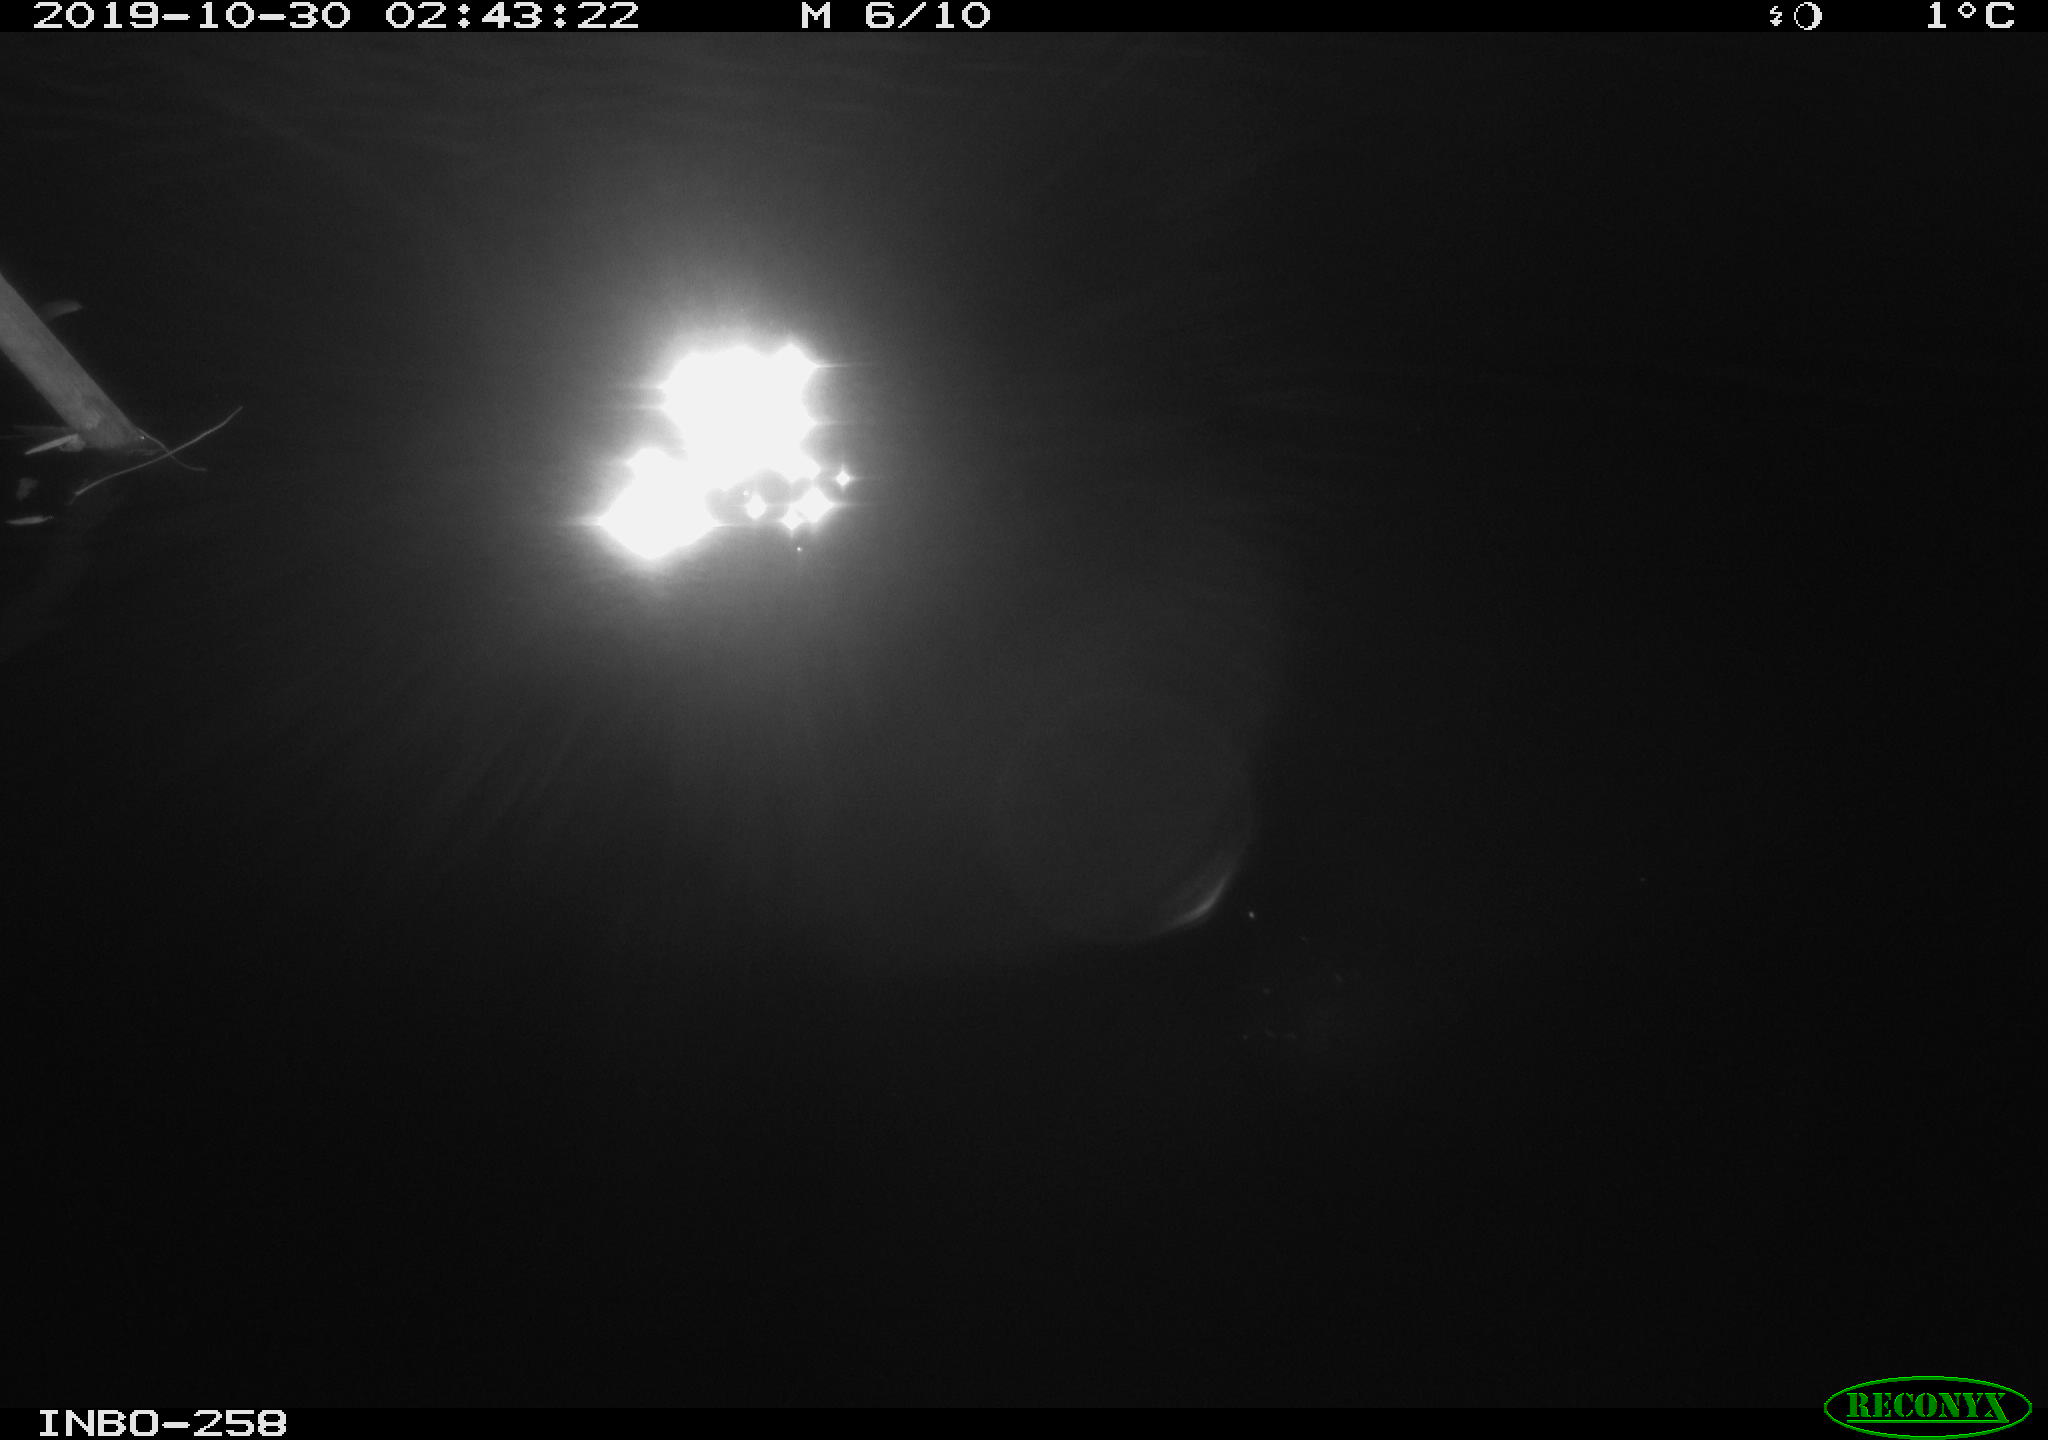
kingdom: Animalia
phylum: Chordata
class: Aves
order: Anseriformes
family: Anatidae
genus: Anas
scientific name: Anas platyrhynchos
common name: Mallard
